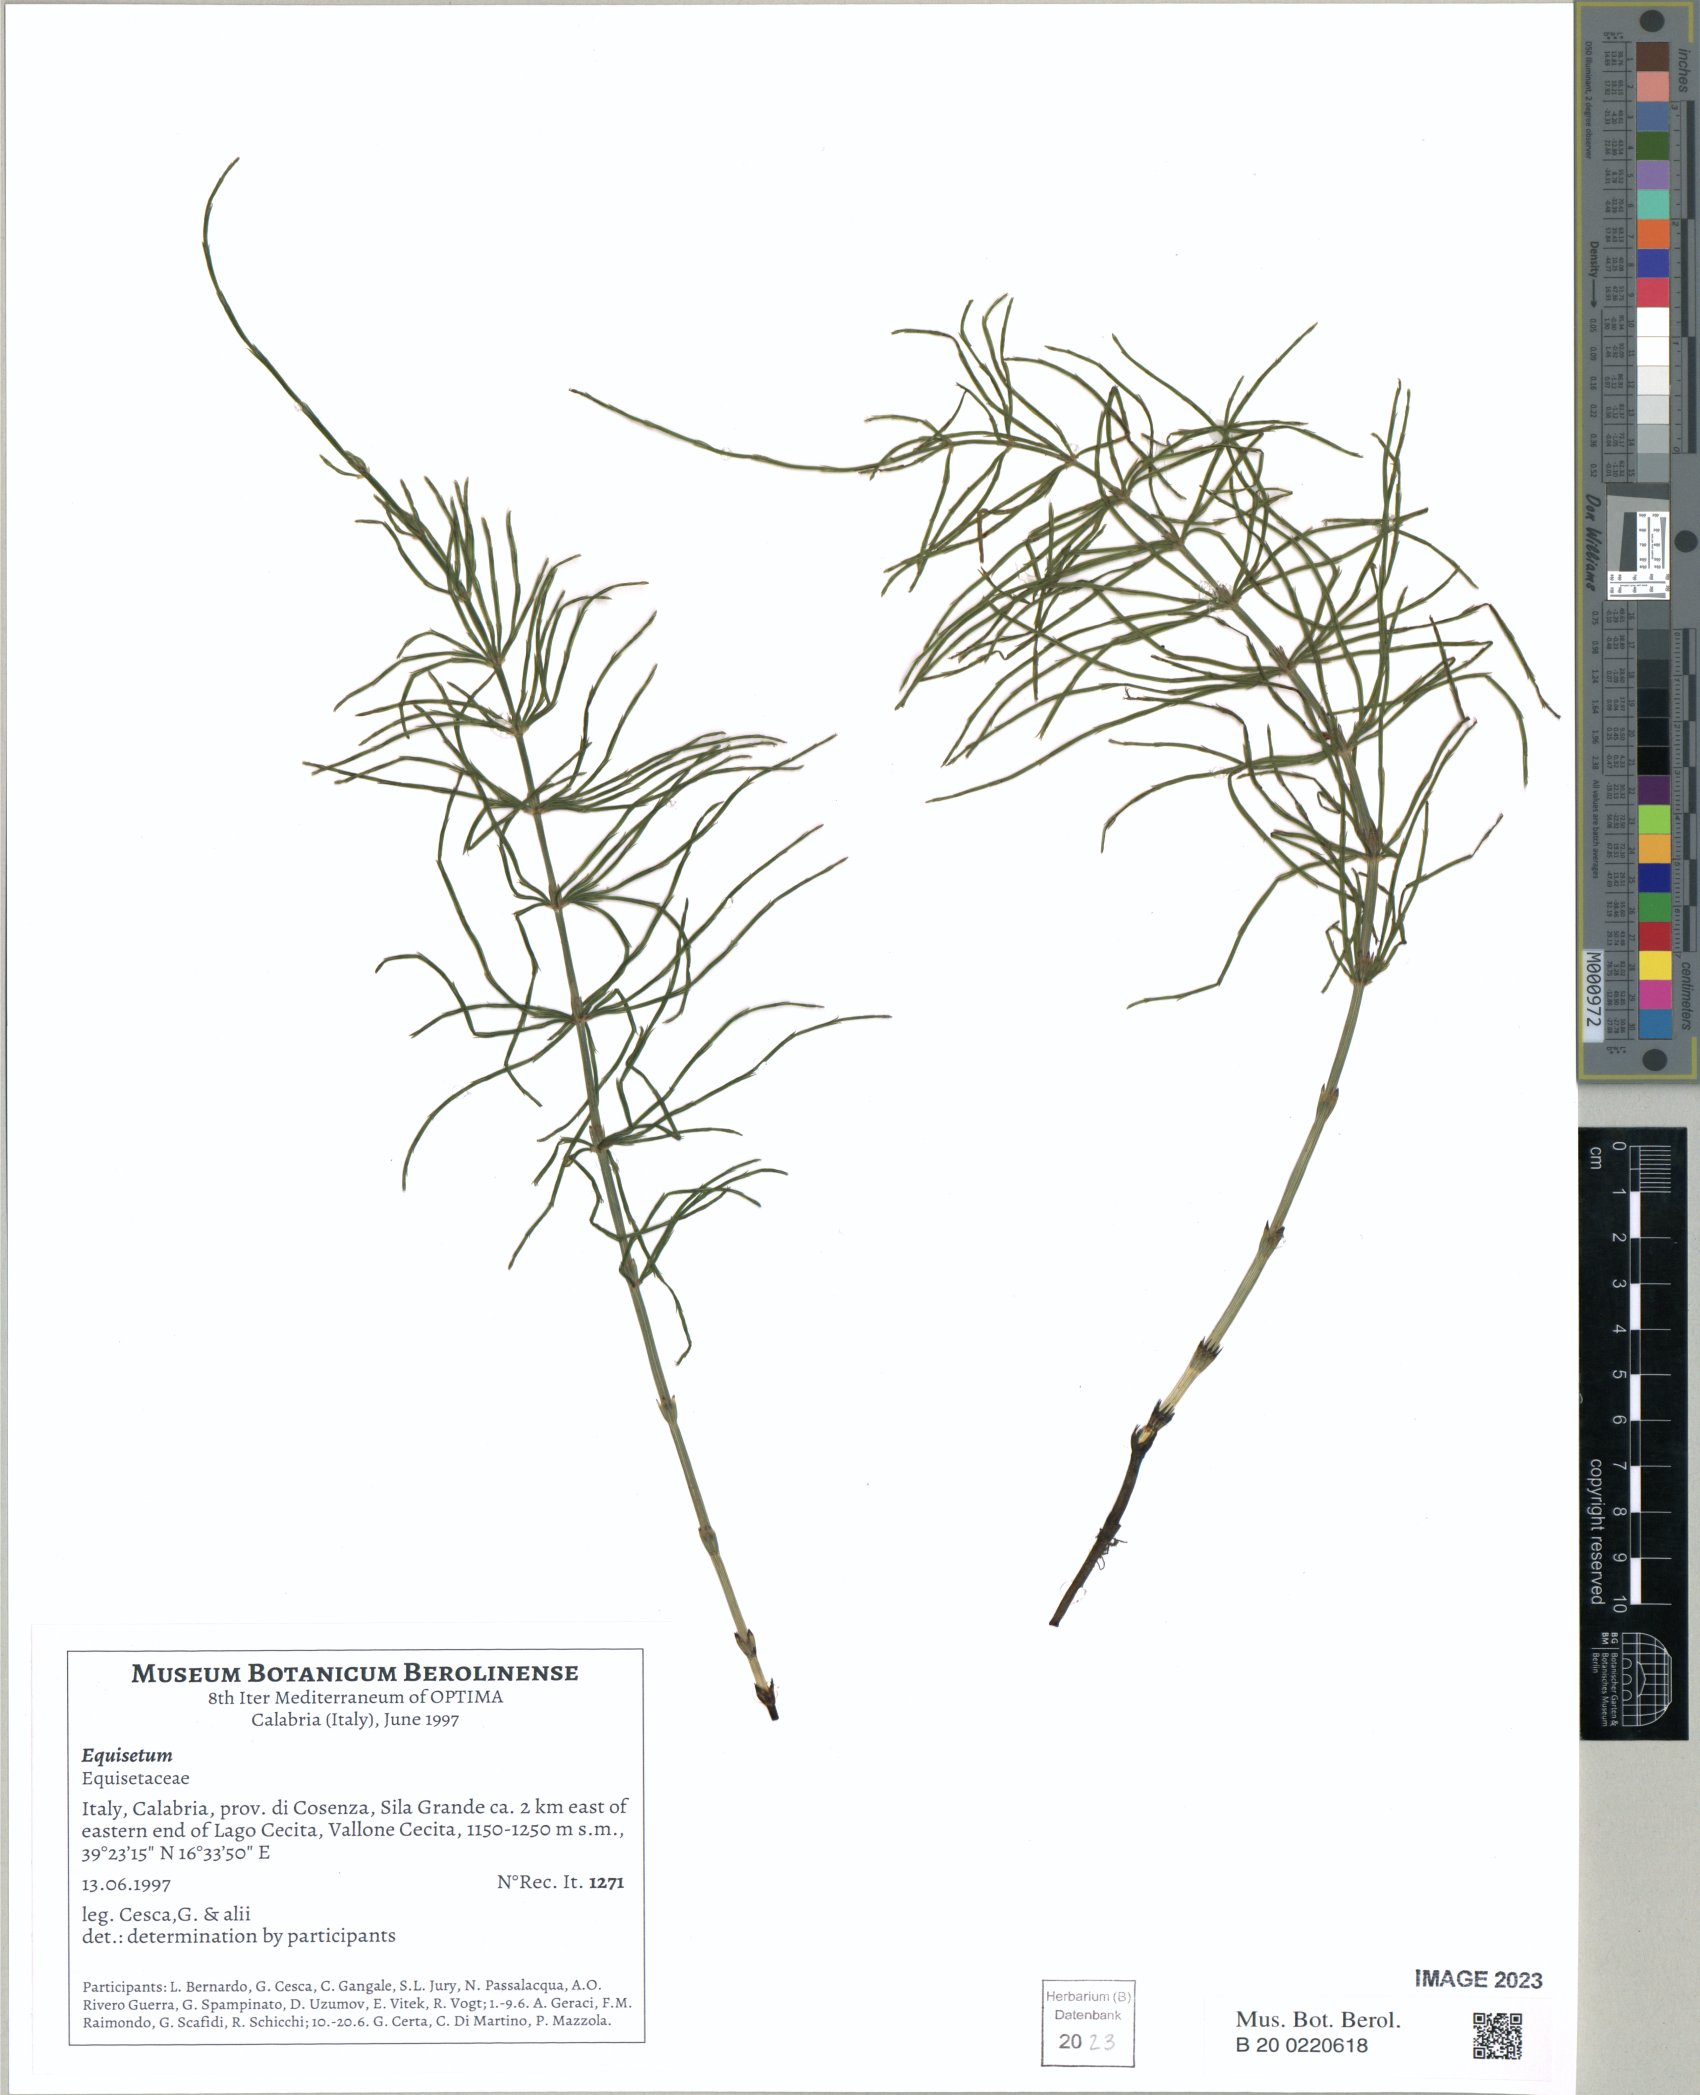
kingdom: Plantae
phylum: Tracheophyta
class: Polypodiopsida
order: Equisetales
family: Equisetaceae
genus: Equisetum
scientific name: Equisetum palustre
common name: Marsh horsetail
